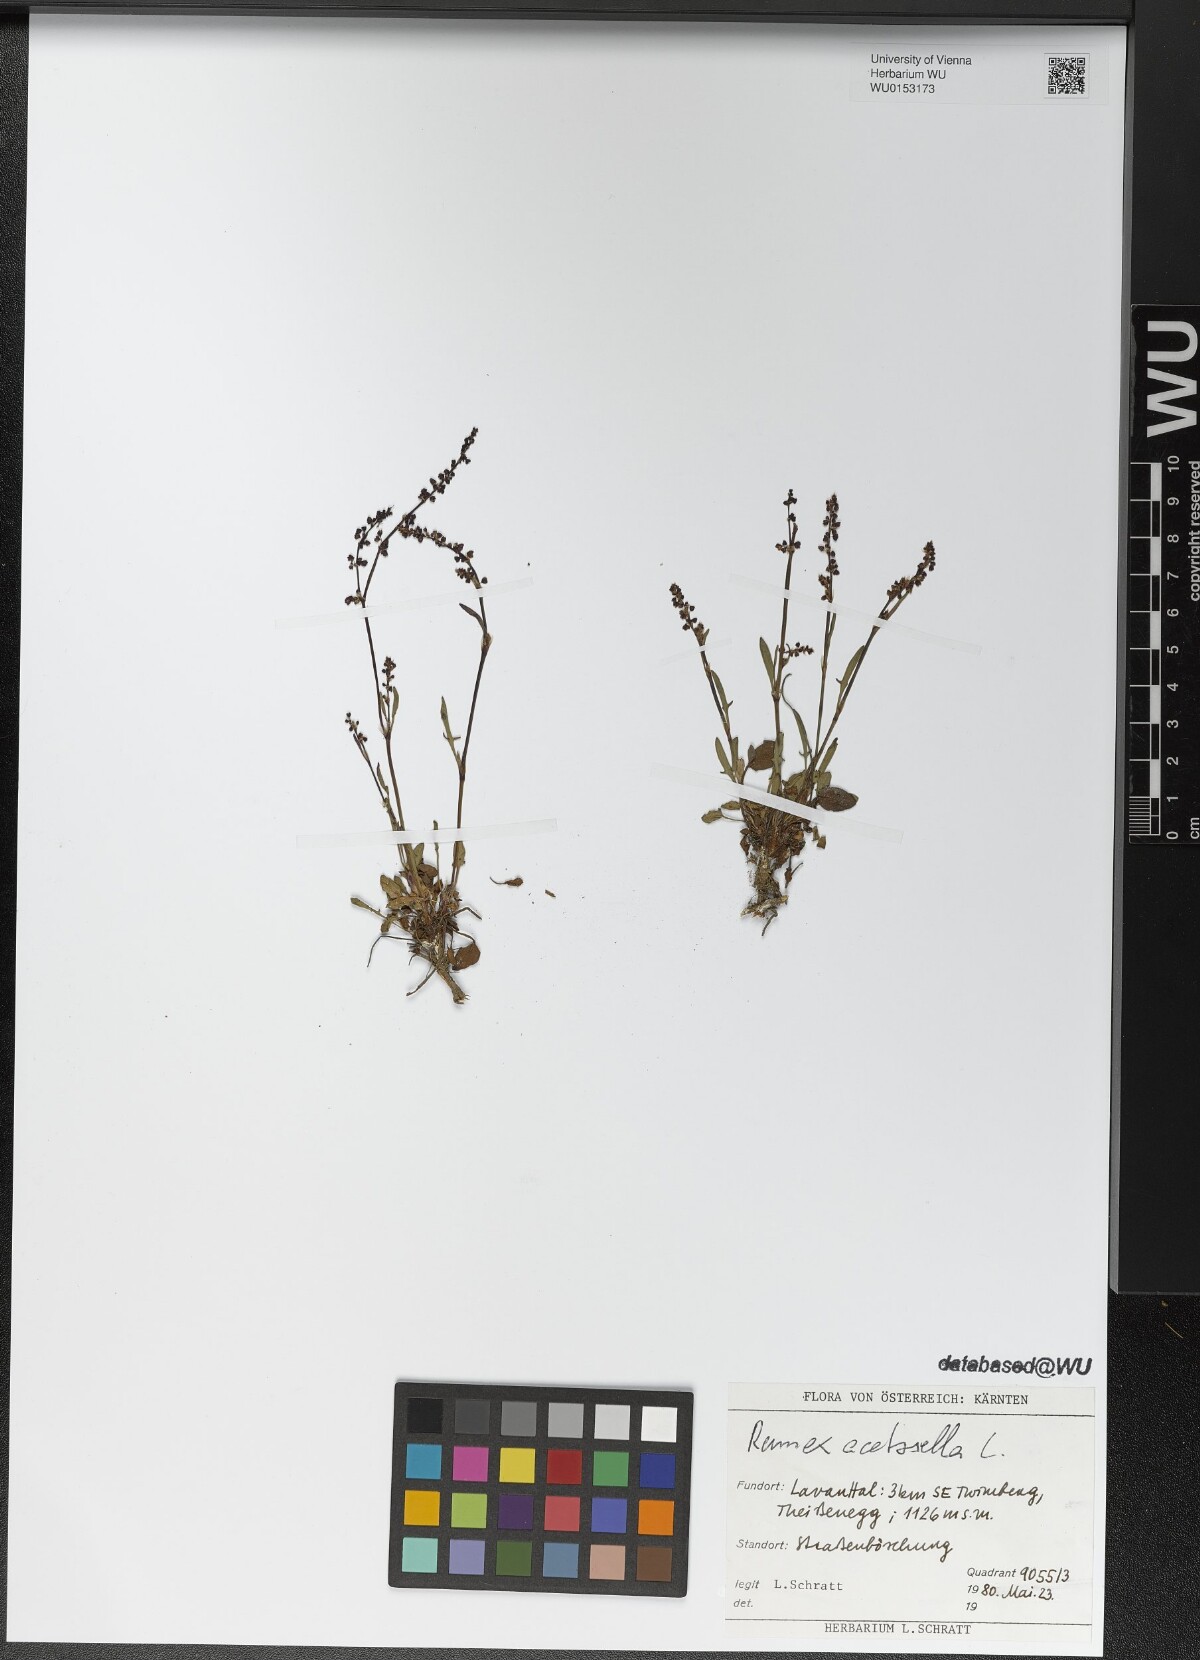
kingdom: Plantae
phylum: Tracheophyta
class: Magnoliopsida
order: Caryophyllales
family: Polygonaceae
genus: Rumex
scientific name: Rumex acetosella
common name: Common sheep sorrel
